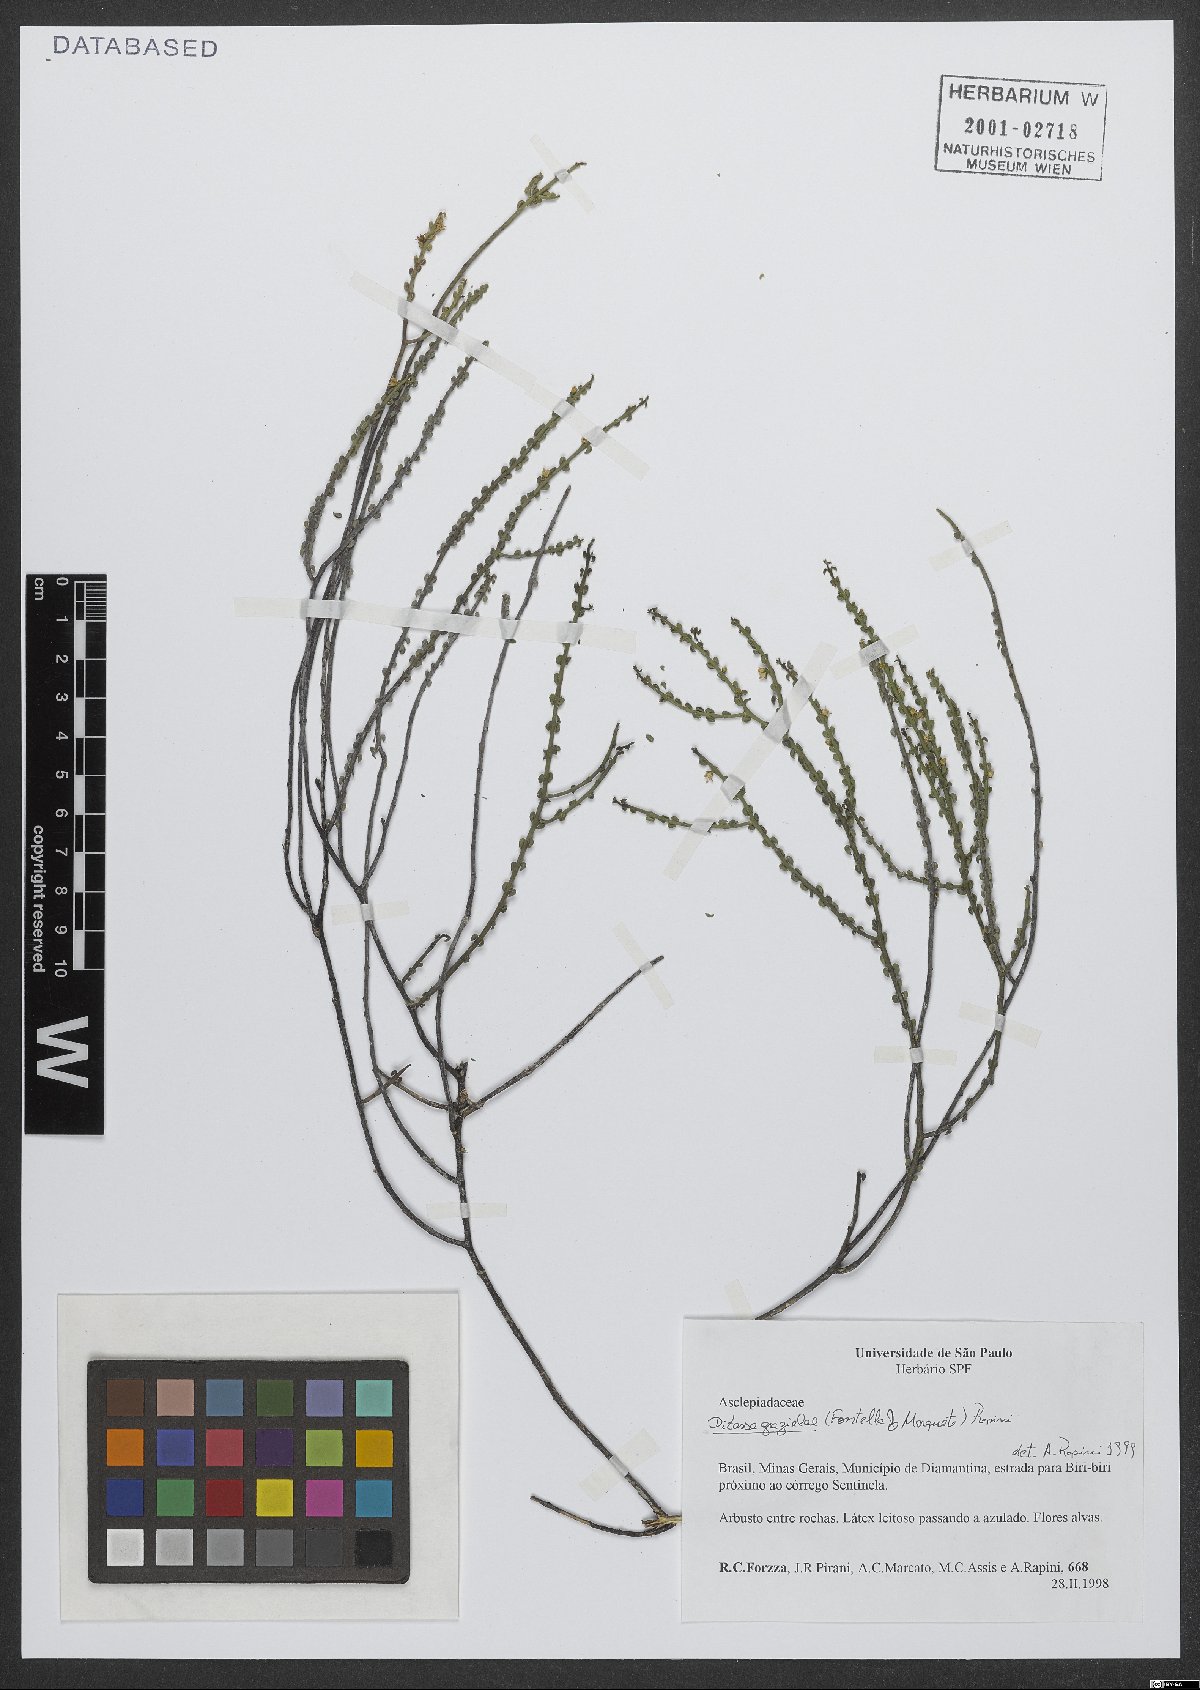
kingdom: Plantae
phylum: Tracheophyta
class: Magnoliopsida
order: Gentianales
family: Apocynaceae
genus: Minaria
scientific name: Minaria grazielae
